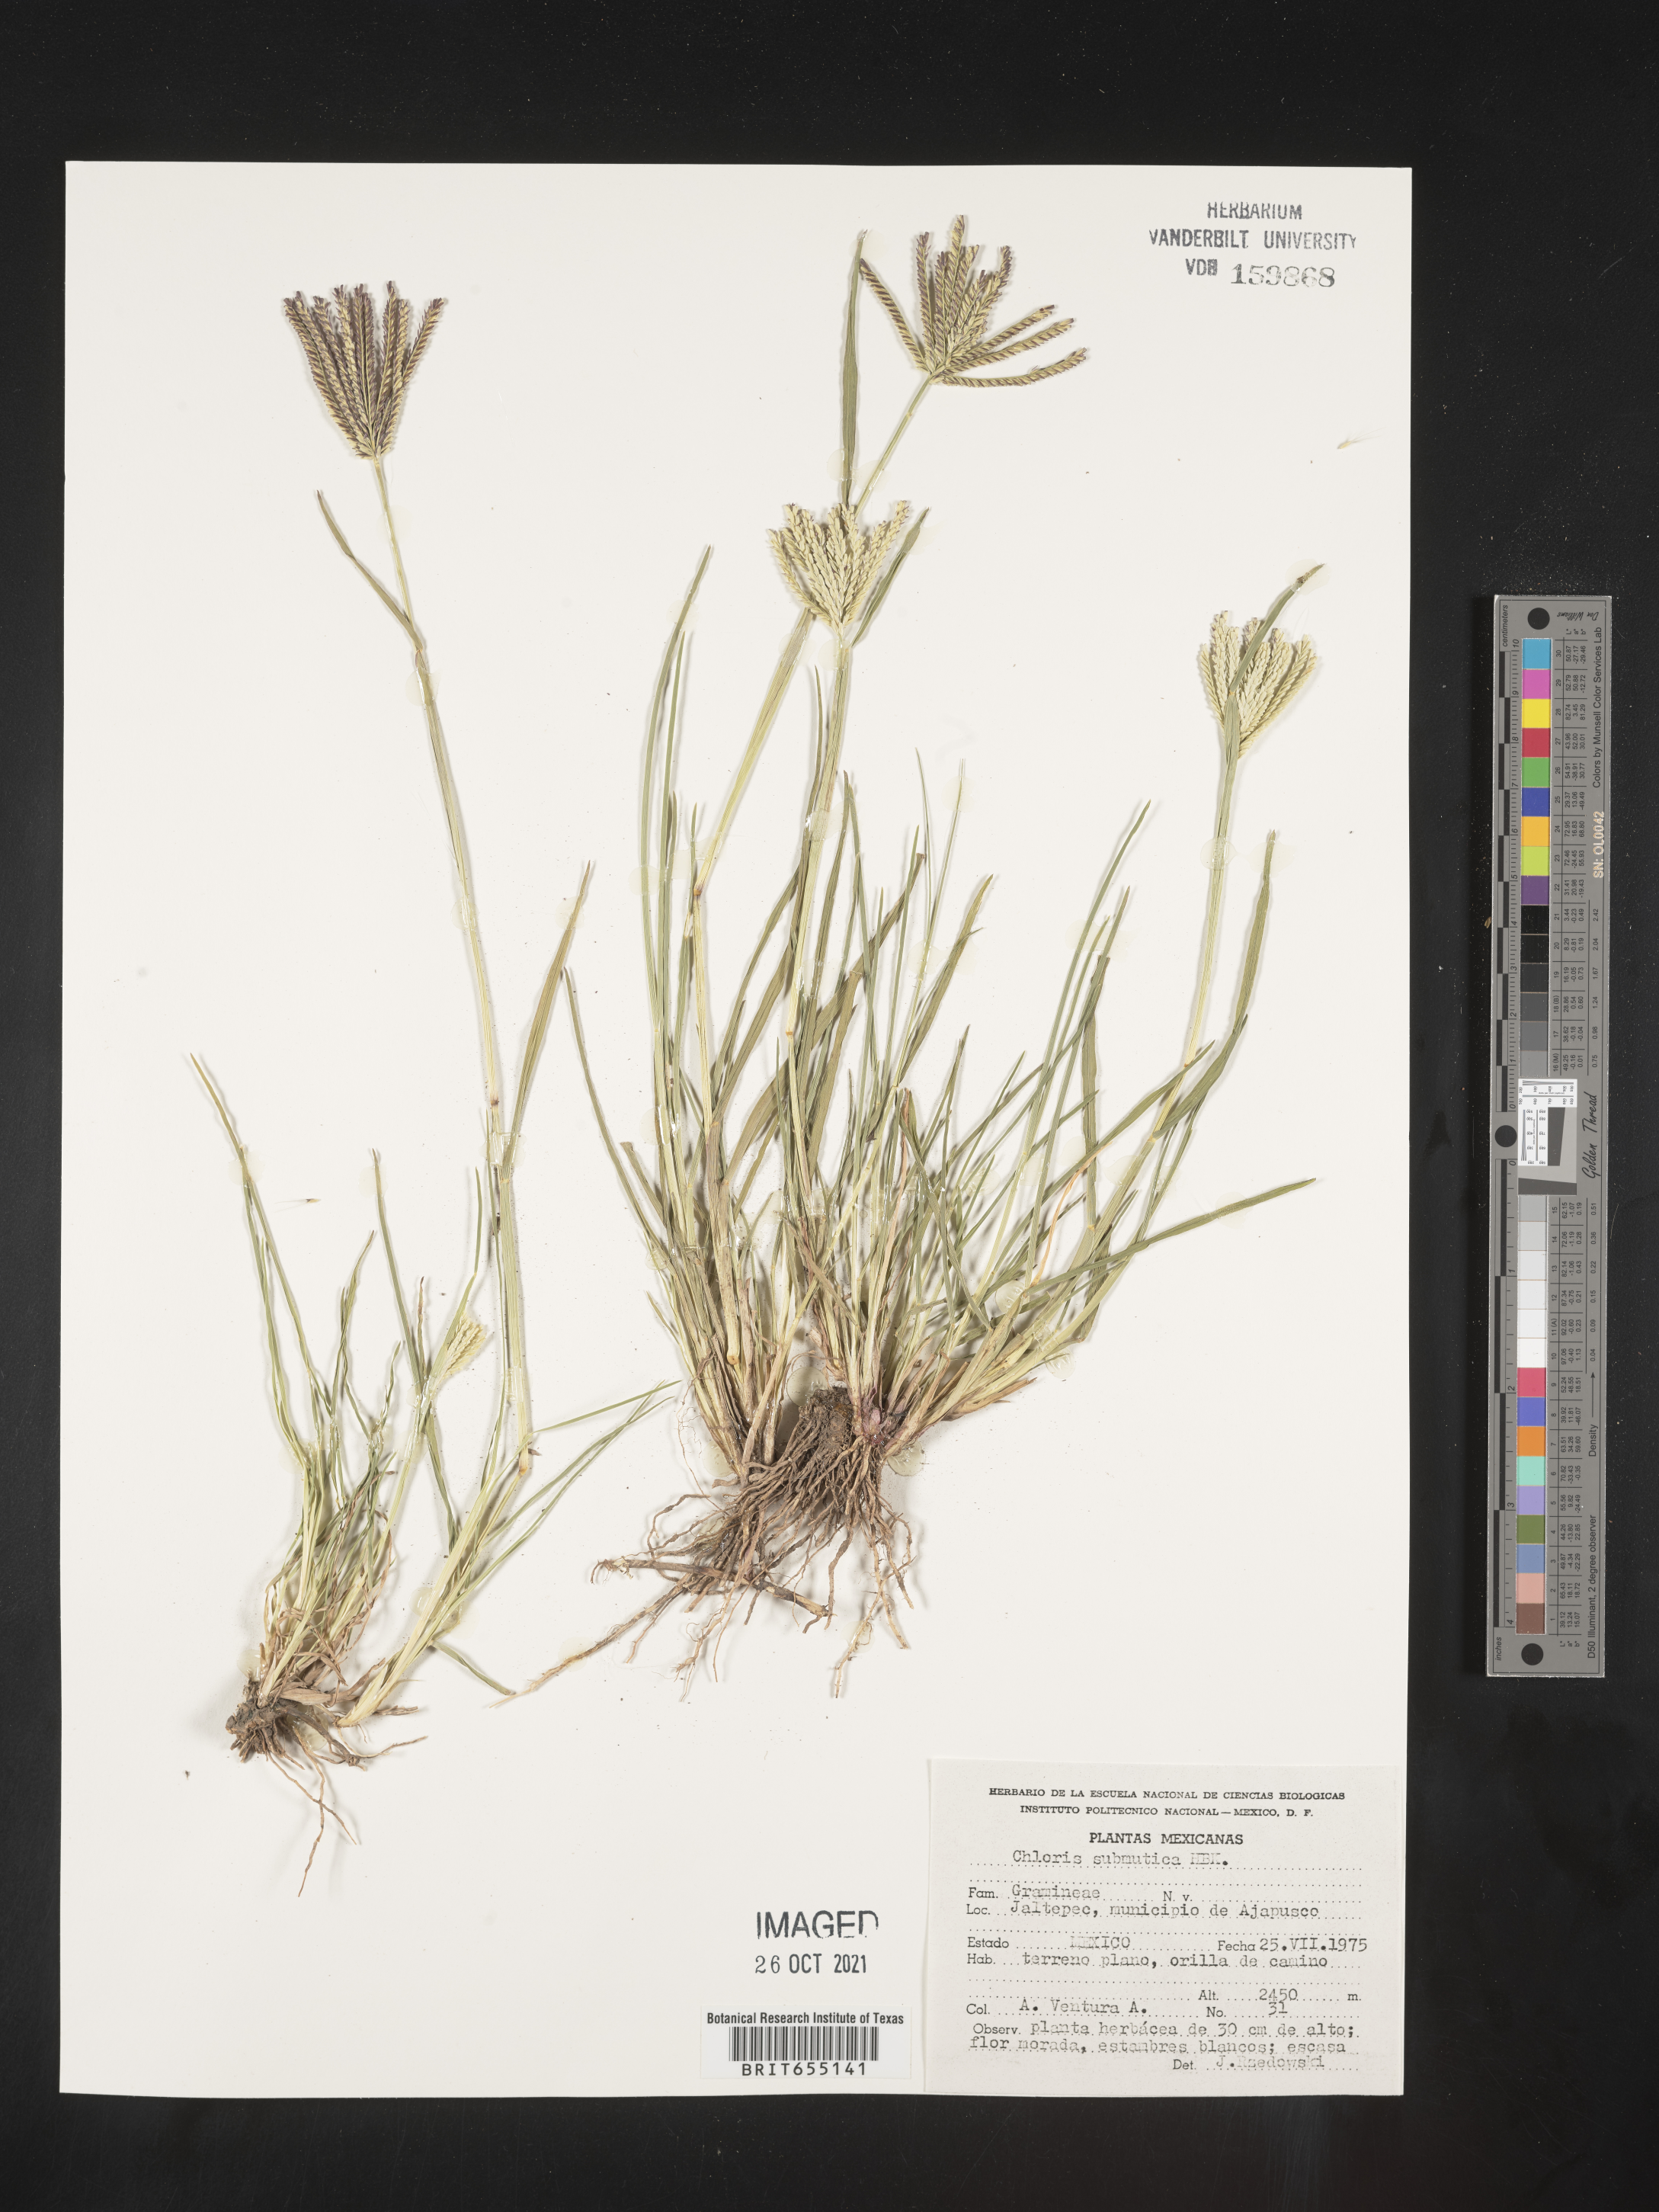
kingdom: Plantae
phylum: Tracheophyta
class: Liliopsida
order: Poales
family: Poaceae
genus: Chloris
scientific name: Chloris
